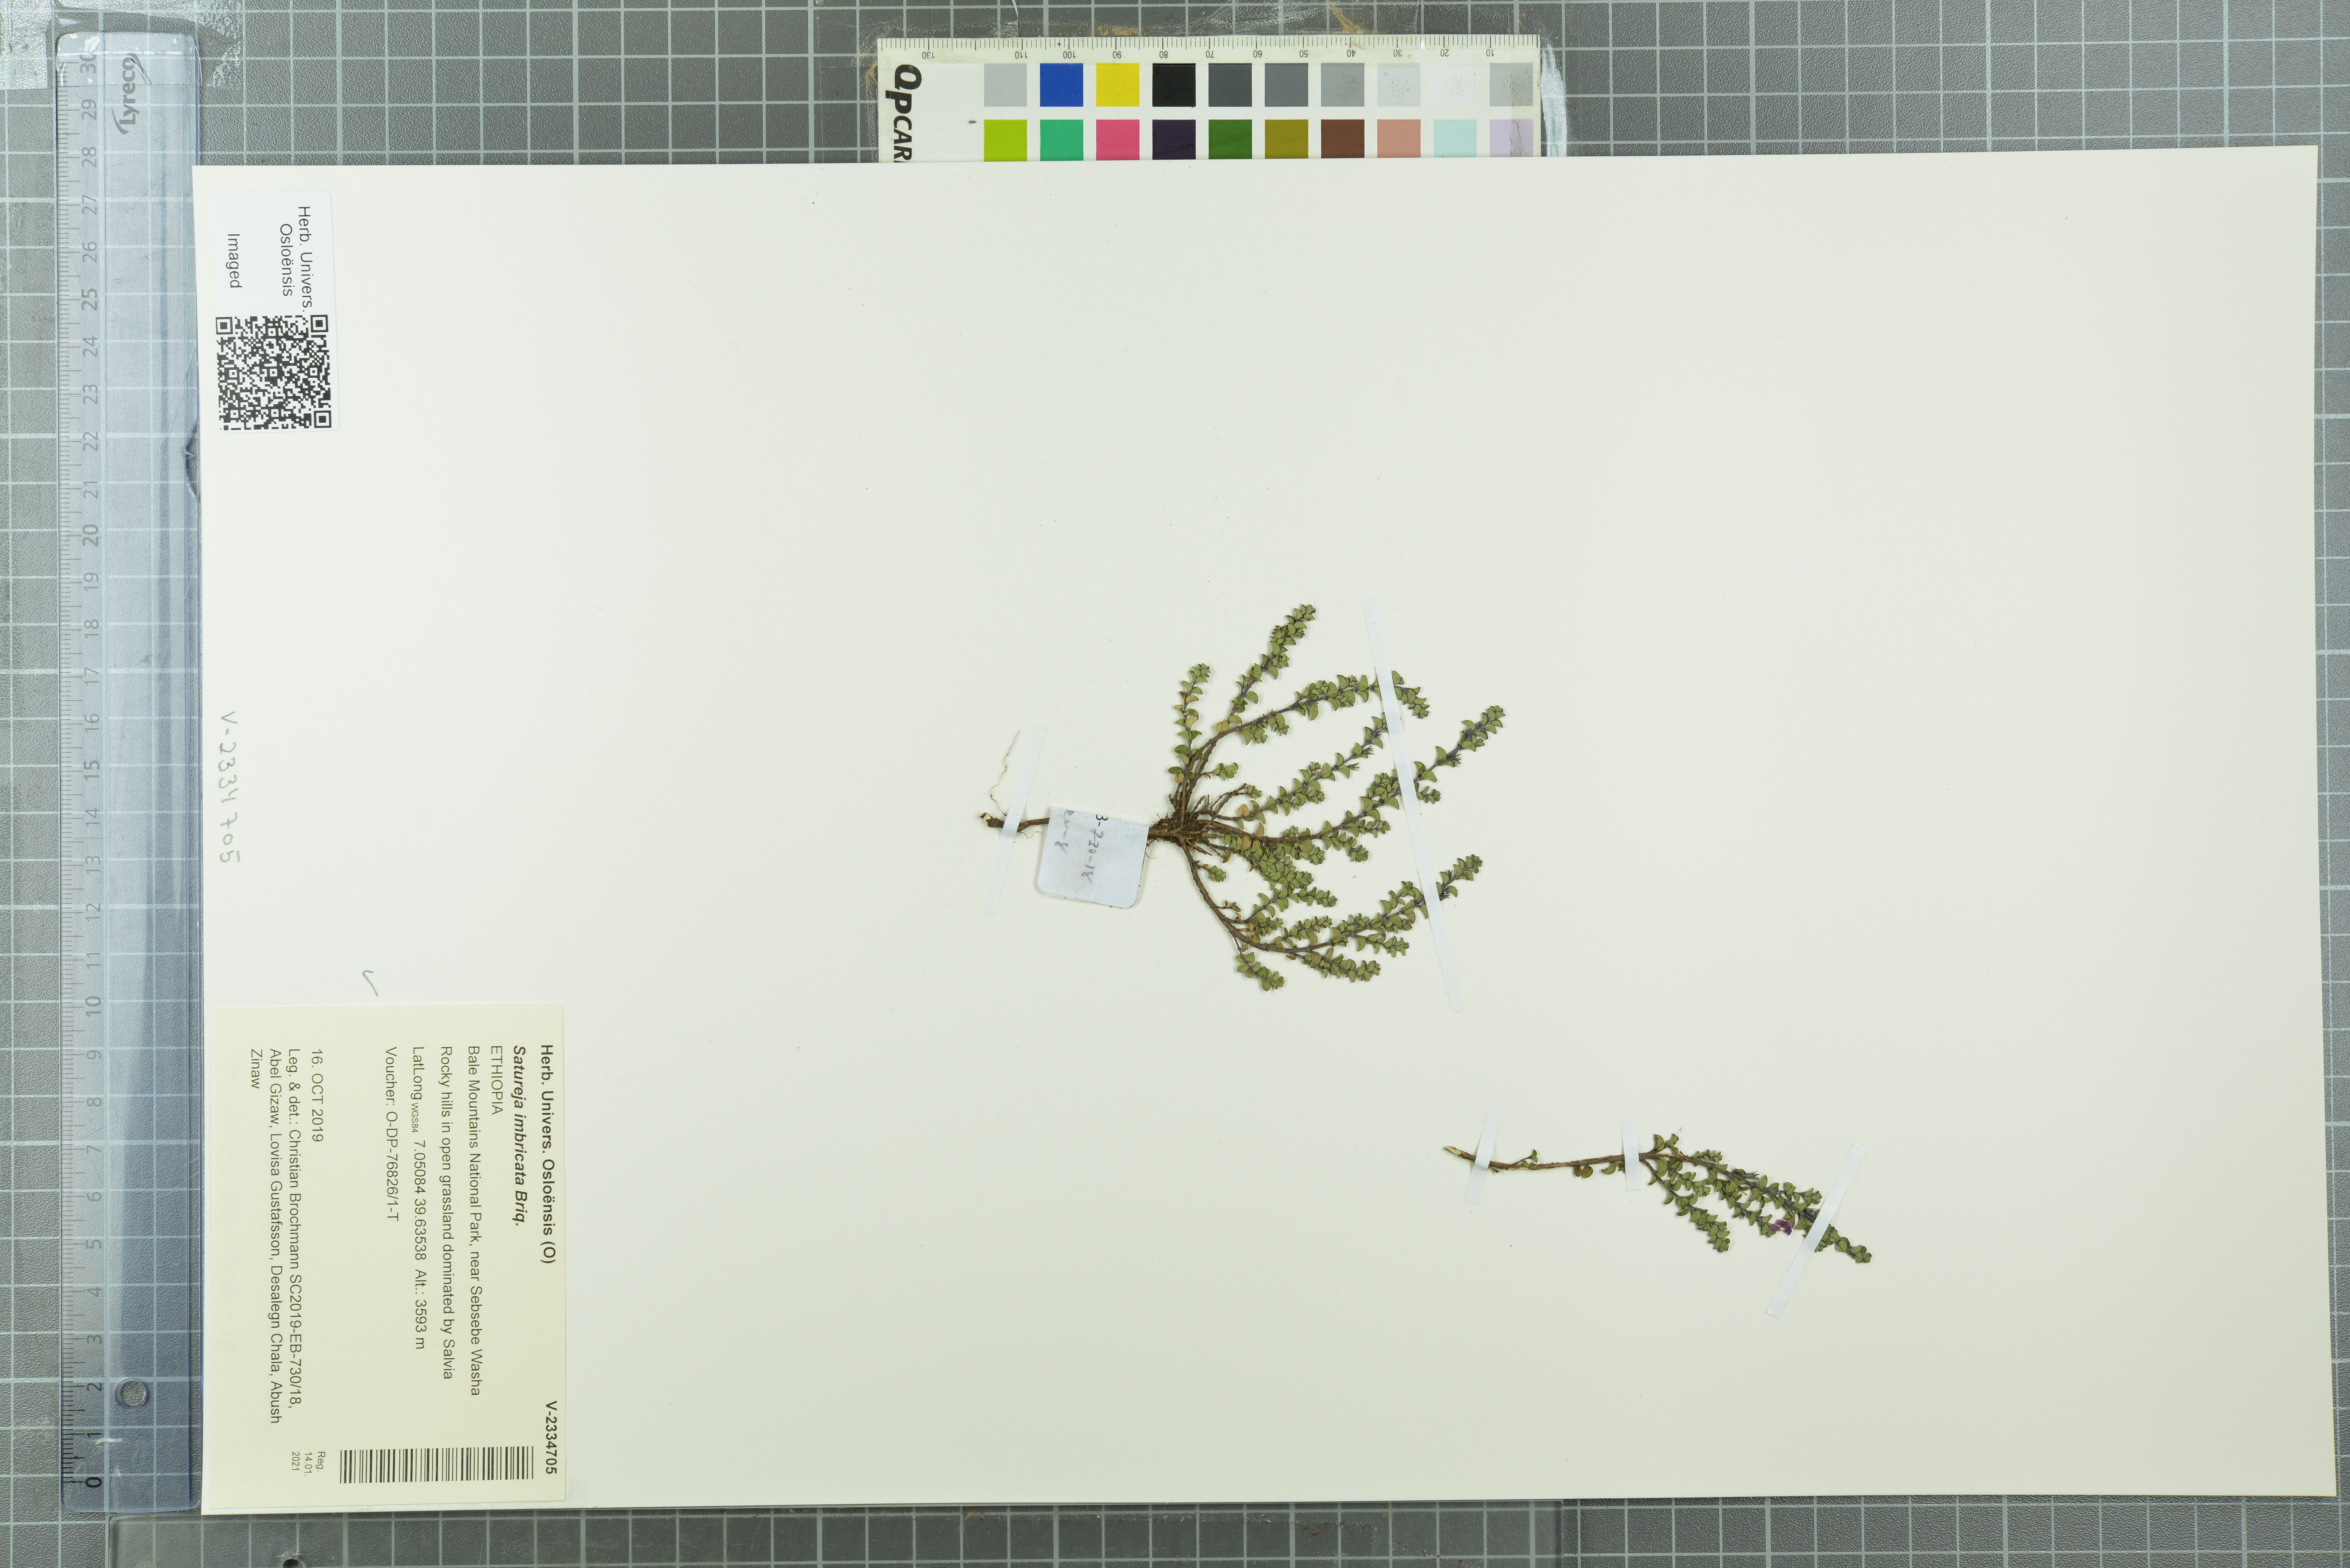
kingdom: Plantae
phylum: Tracheophyta
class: Magnoliopsida
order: Lamiales
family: Lamiaceae
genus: Micromeria
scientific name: Micromeria imbricata
